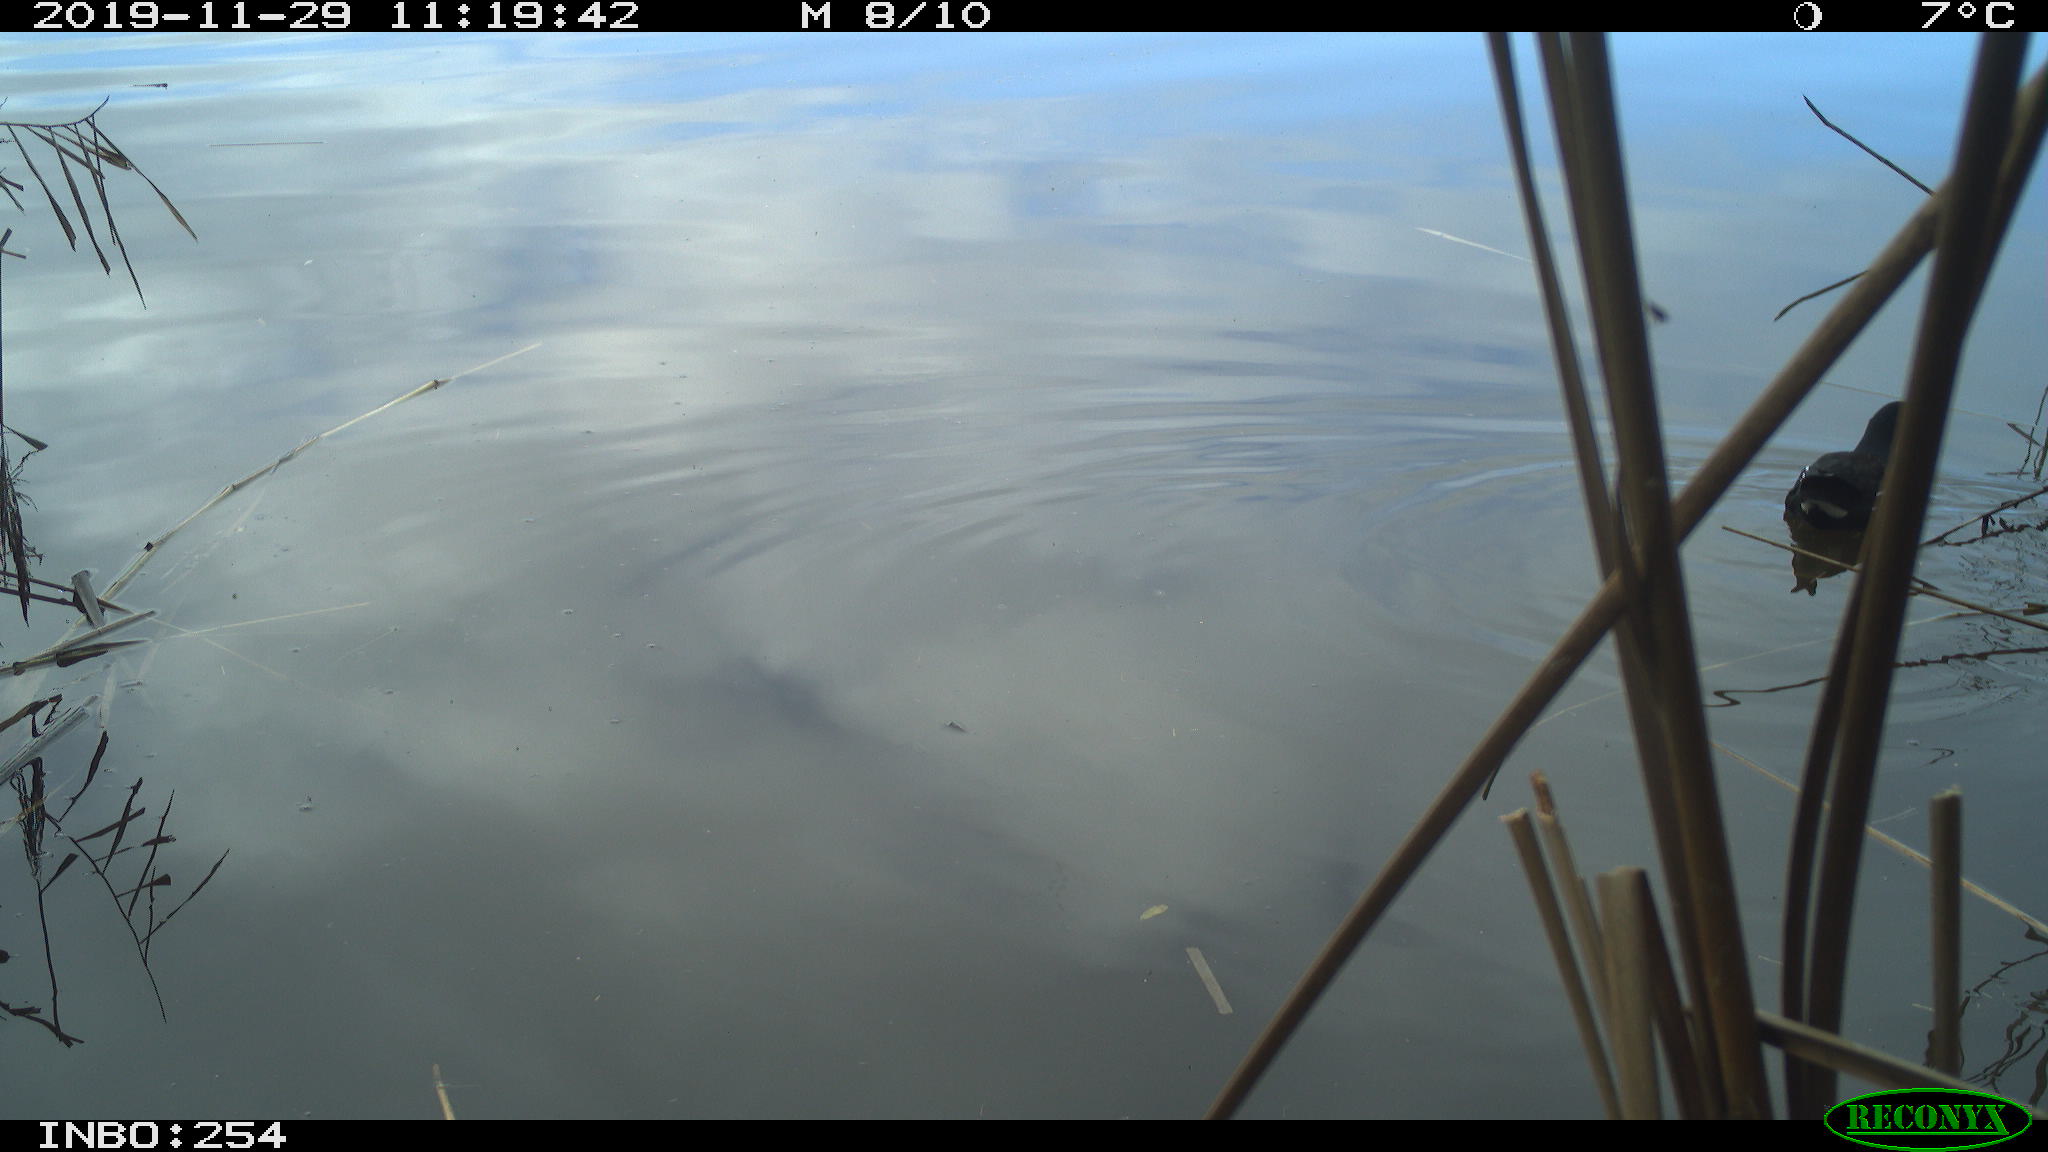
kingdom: Animalia
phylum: Chordata
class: Aves
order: Gruiformes
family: Rallidae
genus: Gallinula
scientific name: Gallinula chloropus
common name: Common moorhen
